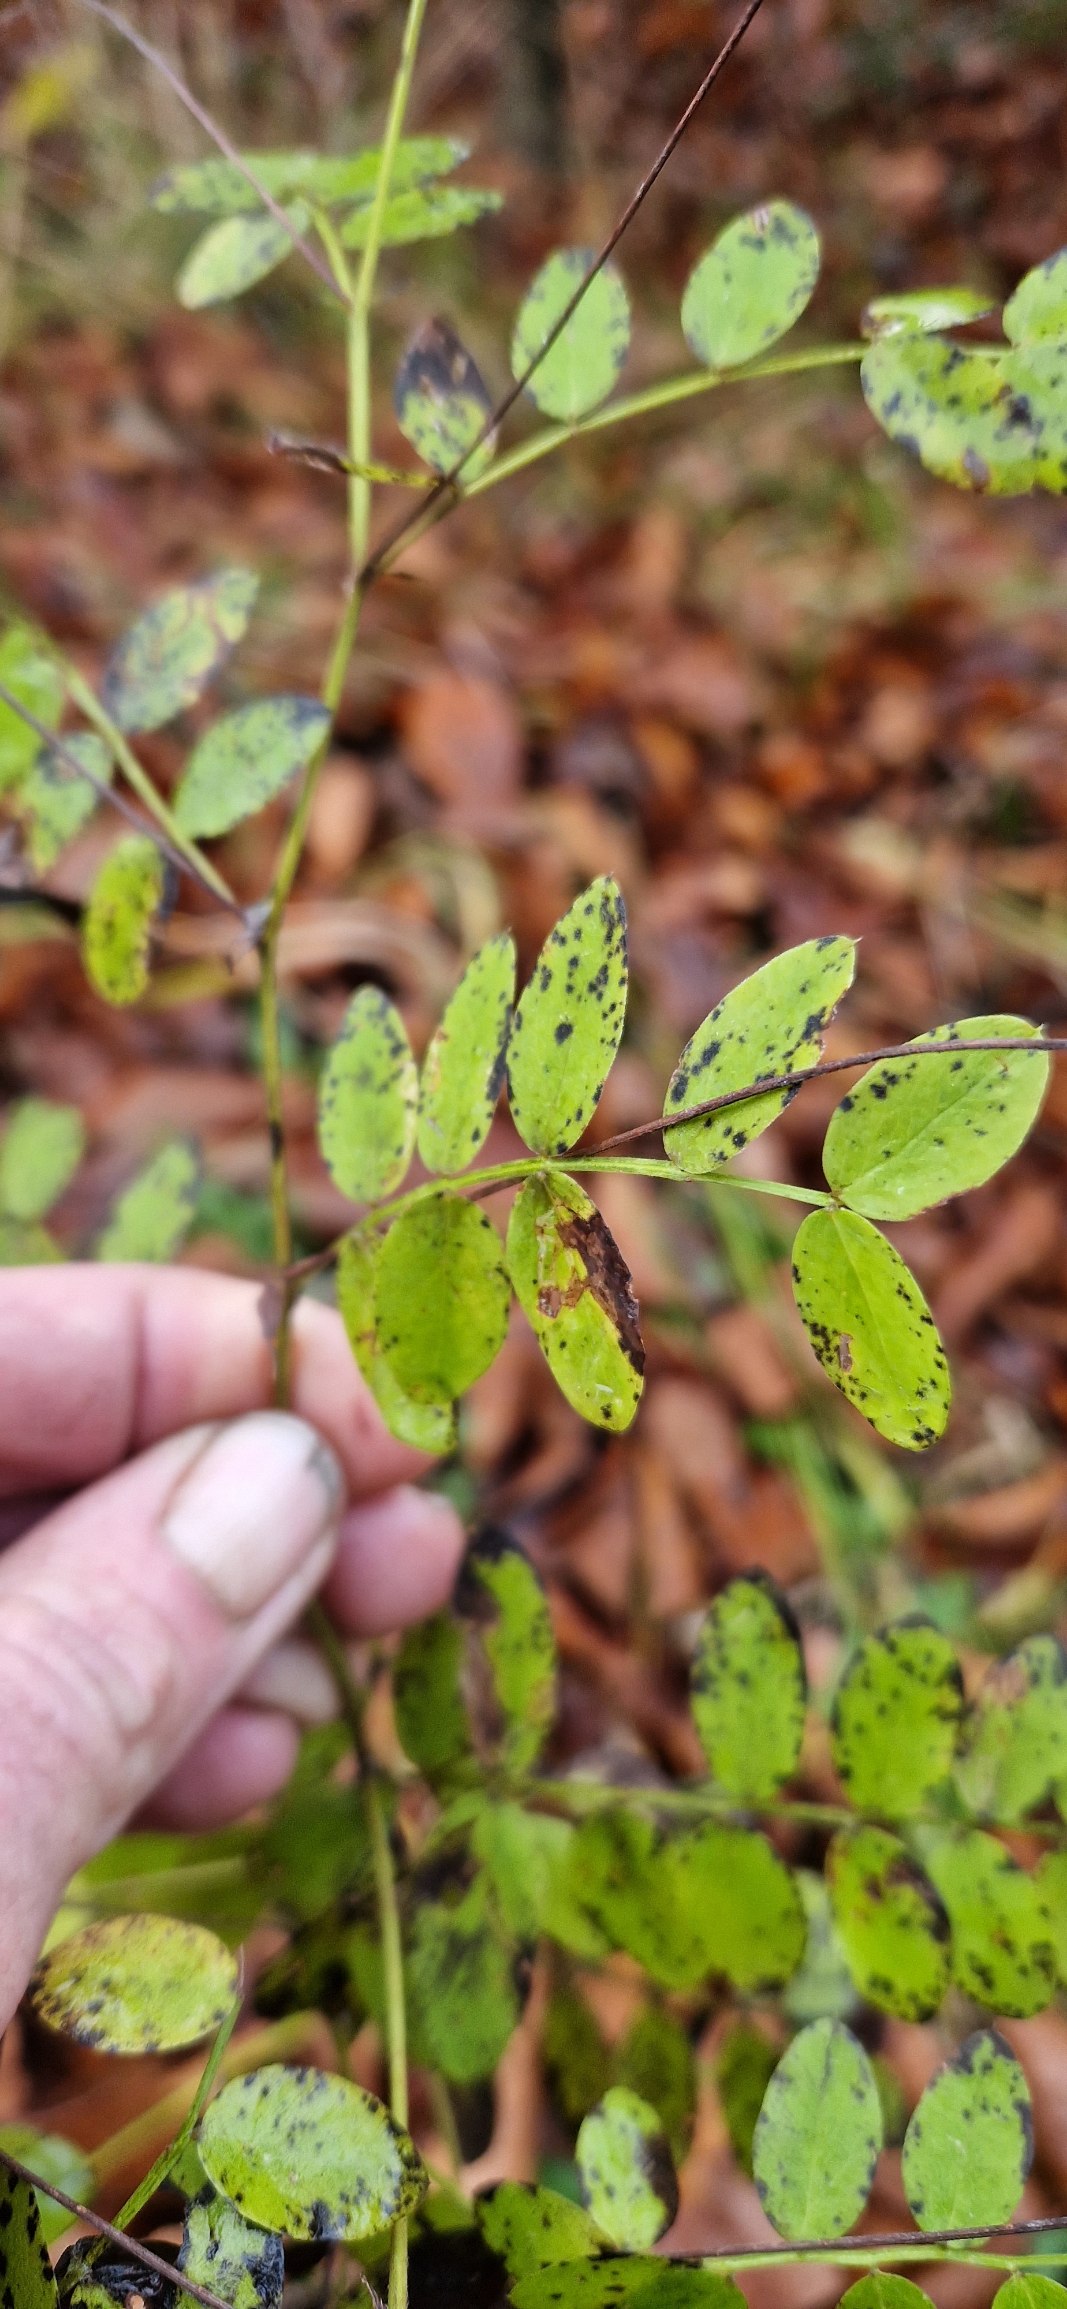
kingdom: Plantae
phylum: Tracheophyta
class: Magnoliopsida
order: Fabales
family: Fabaceae
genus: Lathyrus
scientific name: Lathyrus niger
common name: Sort fladbælg
